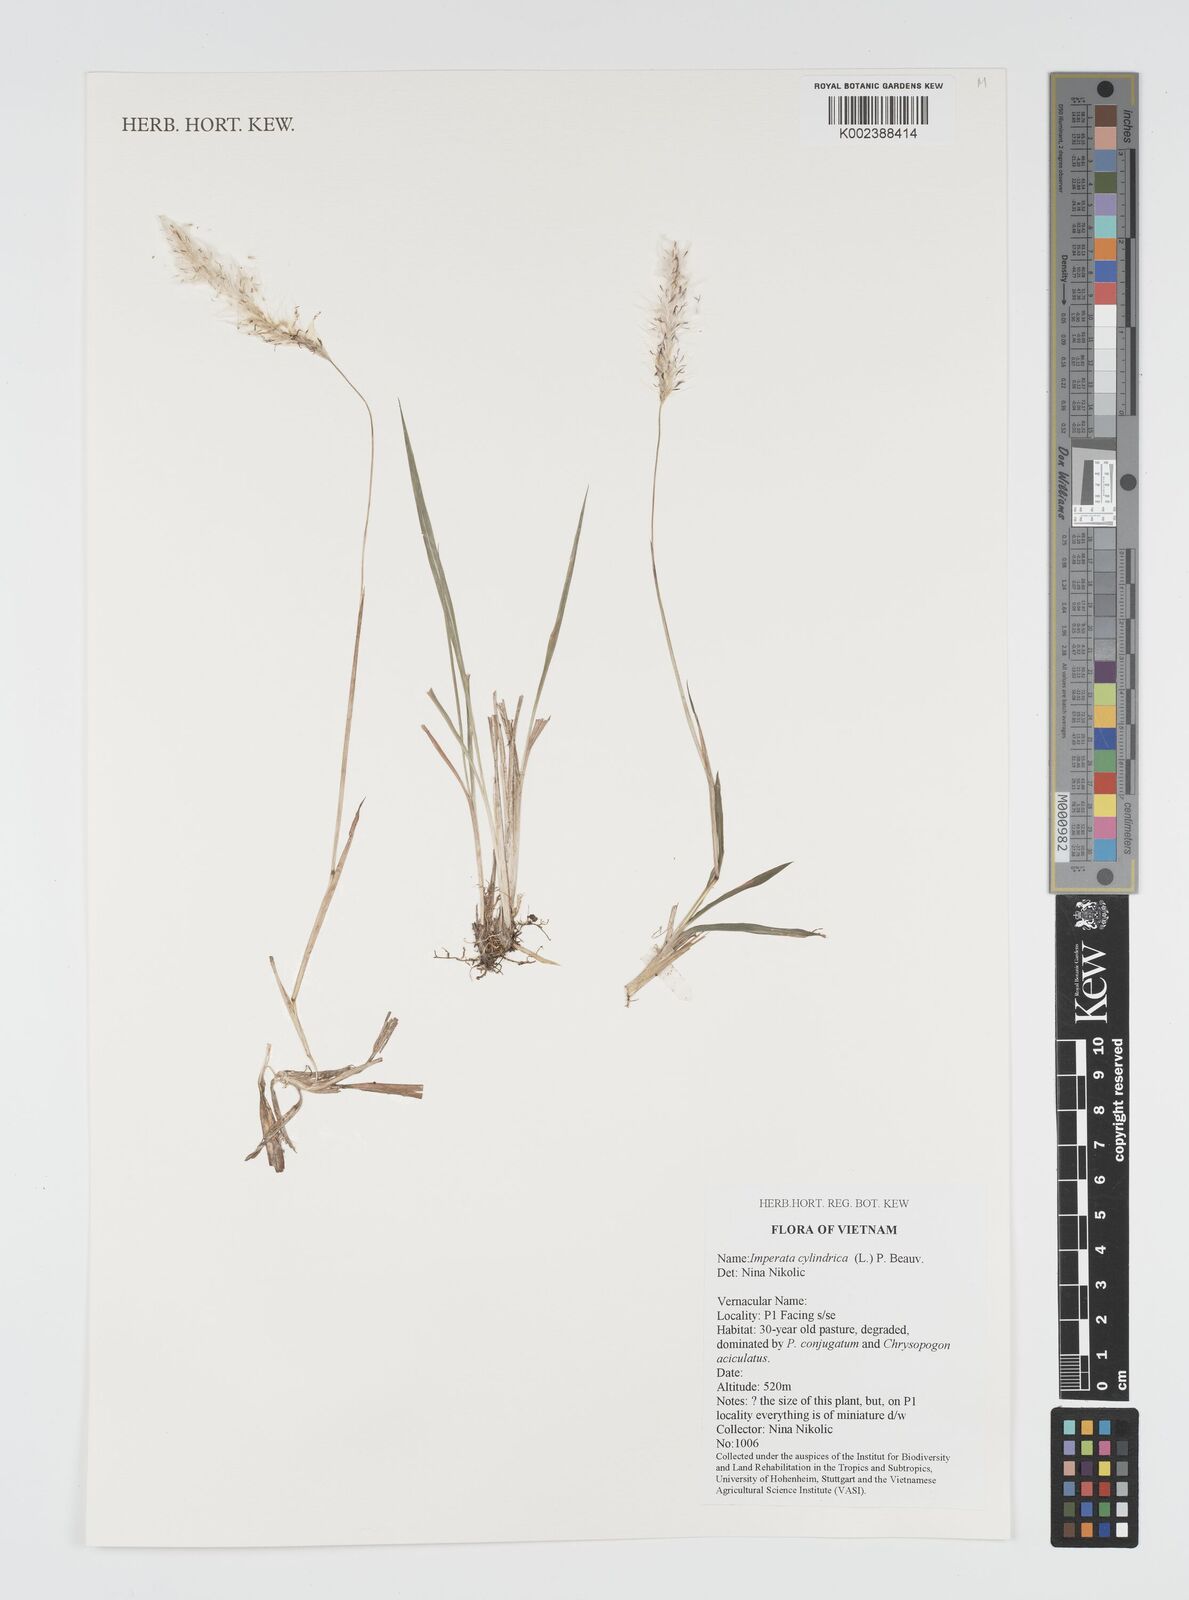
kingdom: Plantae
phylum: Tracheophyta
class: Liliopsida
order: Poales
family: Poaceae
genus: Imperata
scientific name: Imperata cylindrica
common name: Cogongrass
